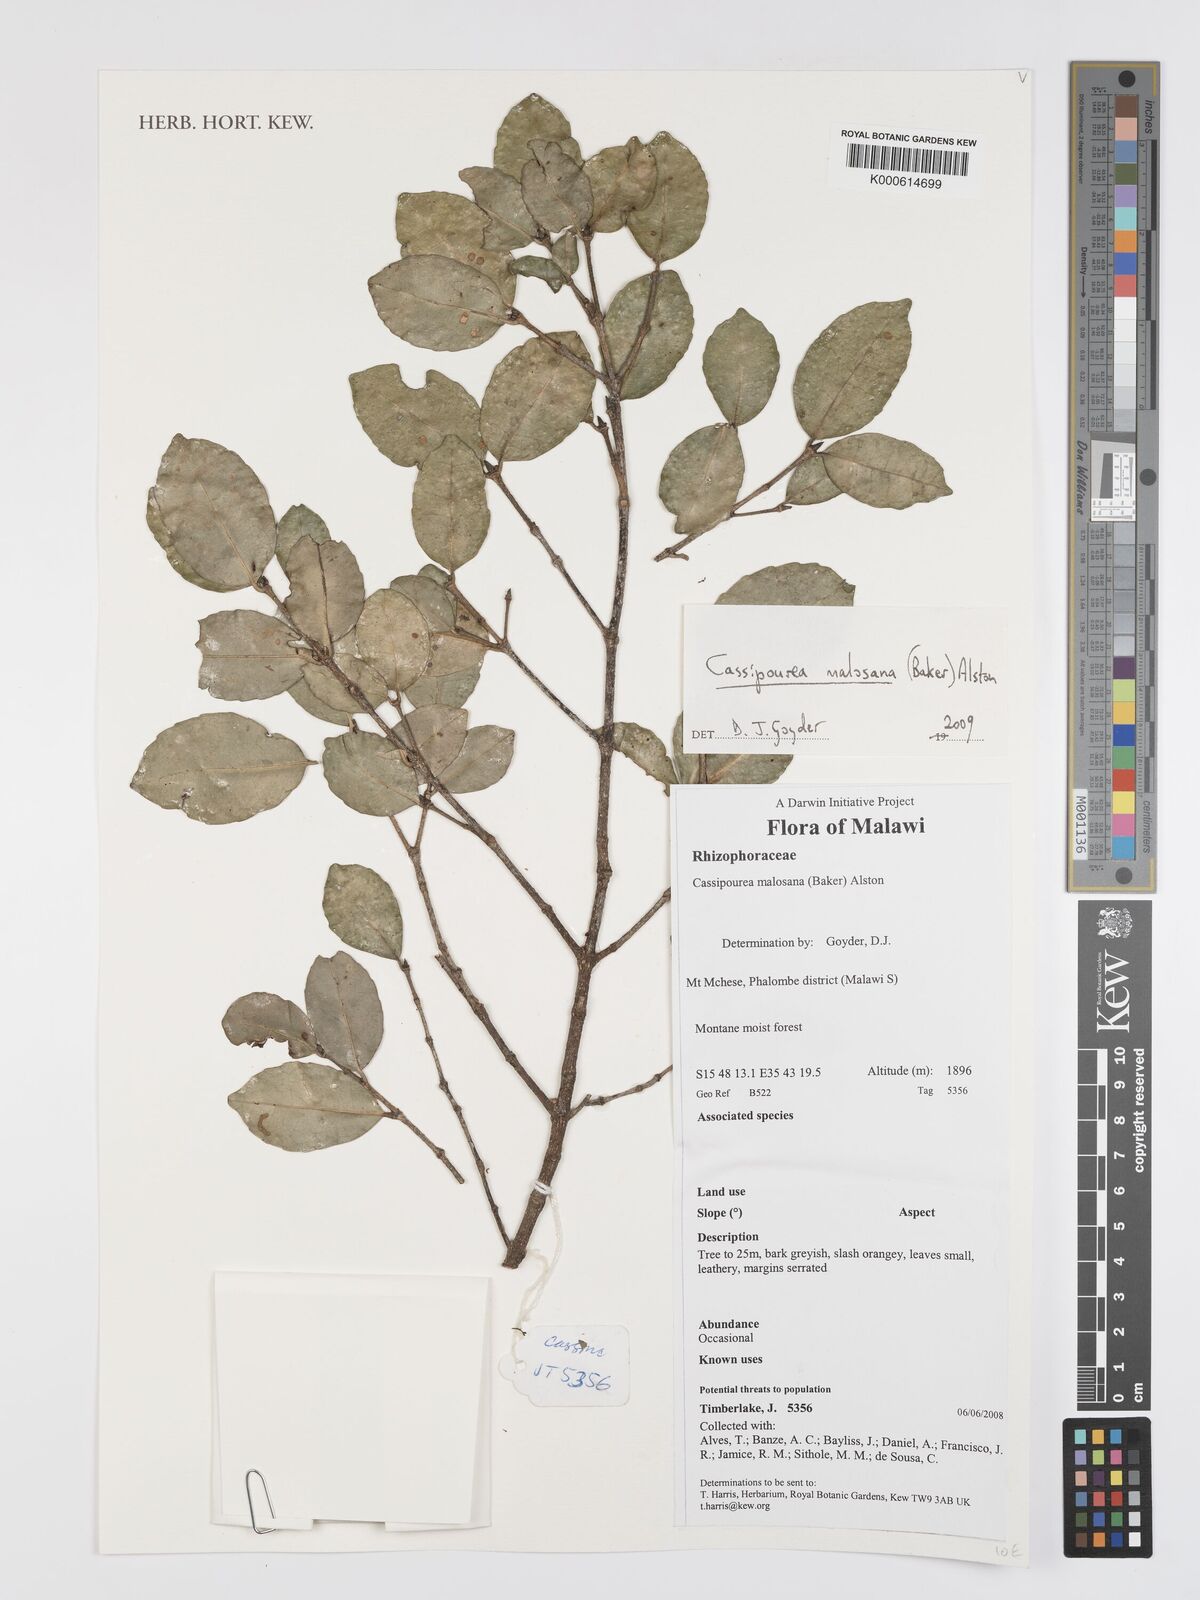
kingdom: Plantae
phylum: Tracheophyta
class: Magnoliopsida
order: Malpighiales
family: Rhizophoraceae
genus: Cassipourea
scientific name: Cassipourea malosana
